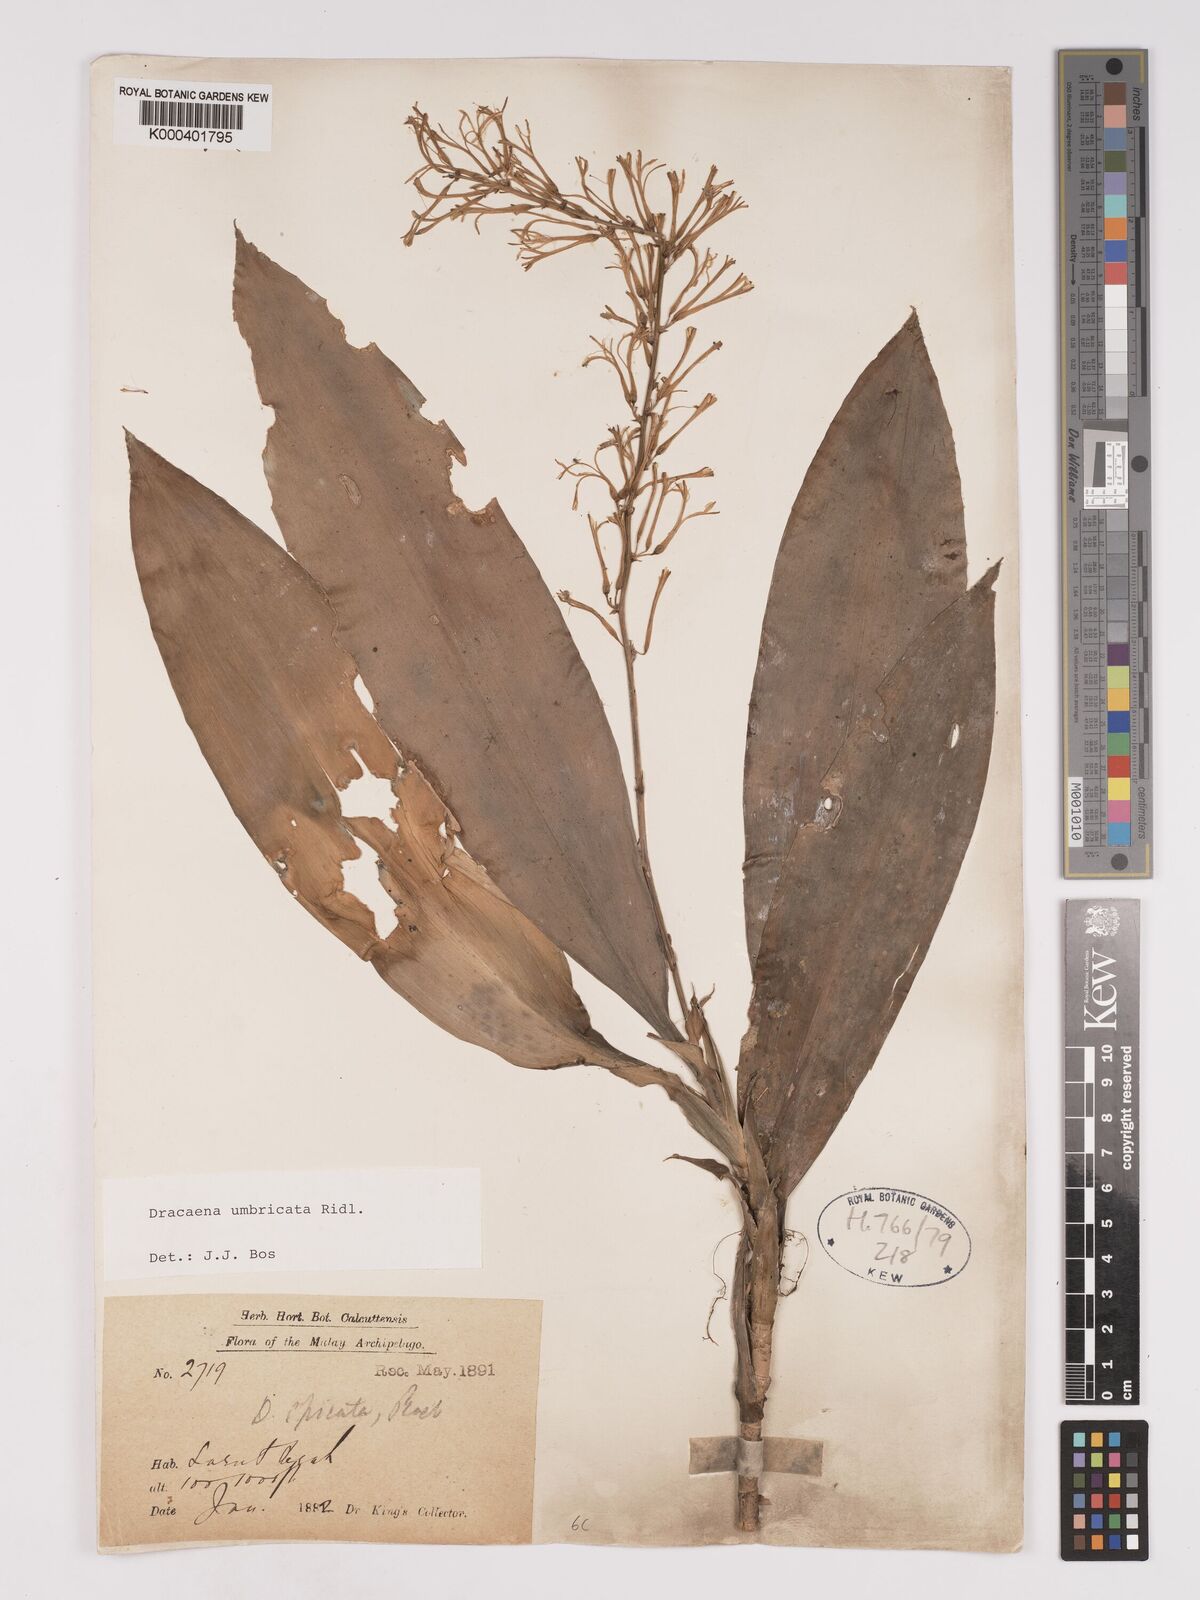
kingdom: Plantae
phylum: Tracheophyta
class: Liliopsida
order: Asparagales
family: Asparagaceae
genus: Dracaena
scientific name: Dracaena
